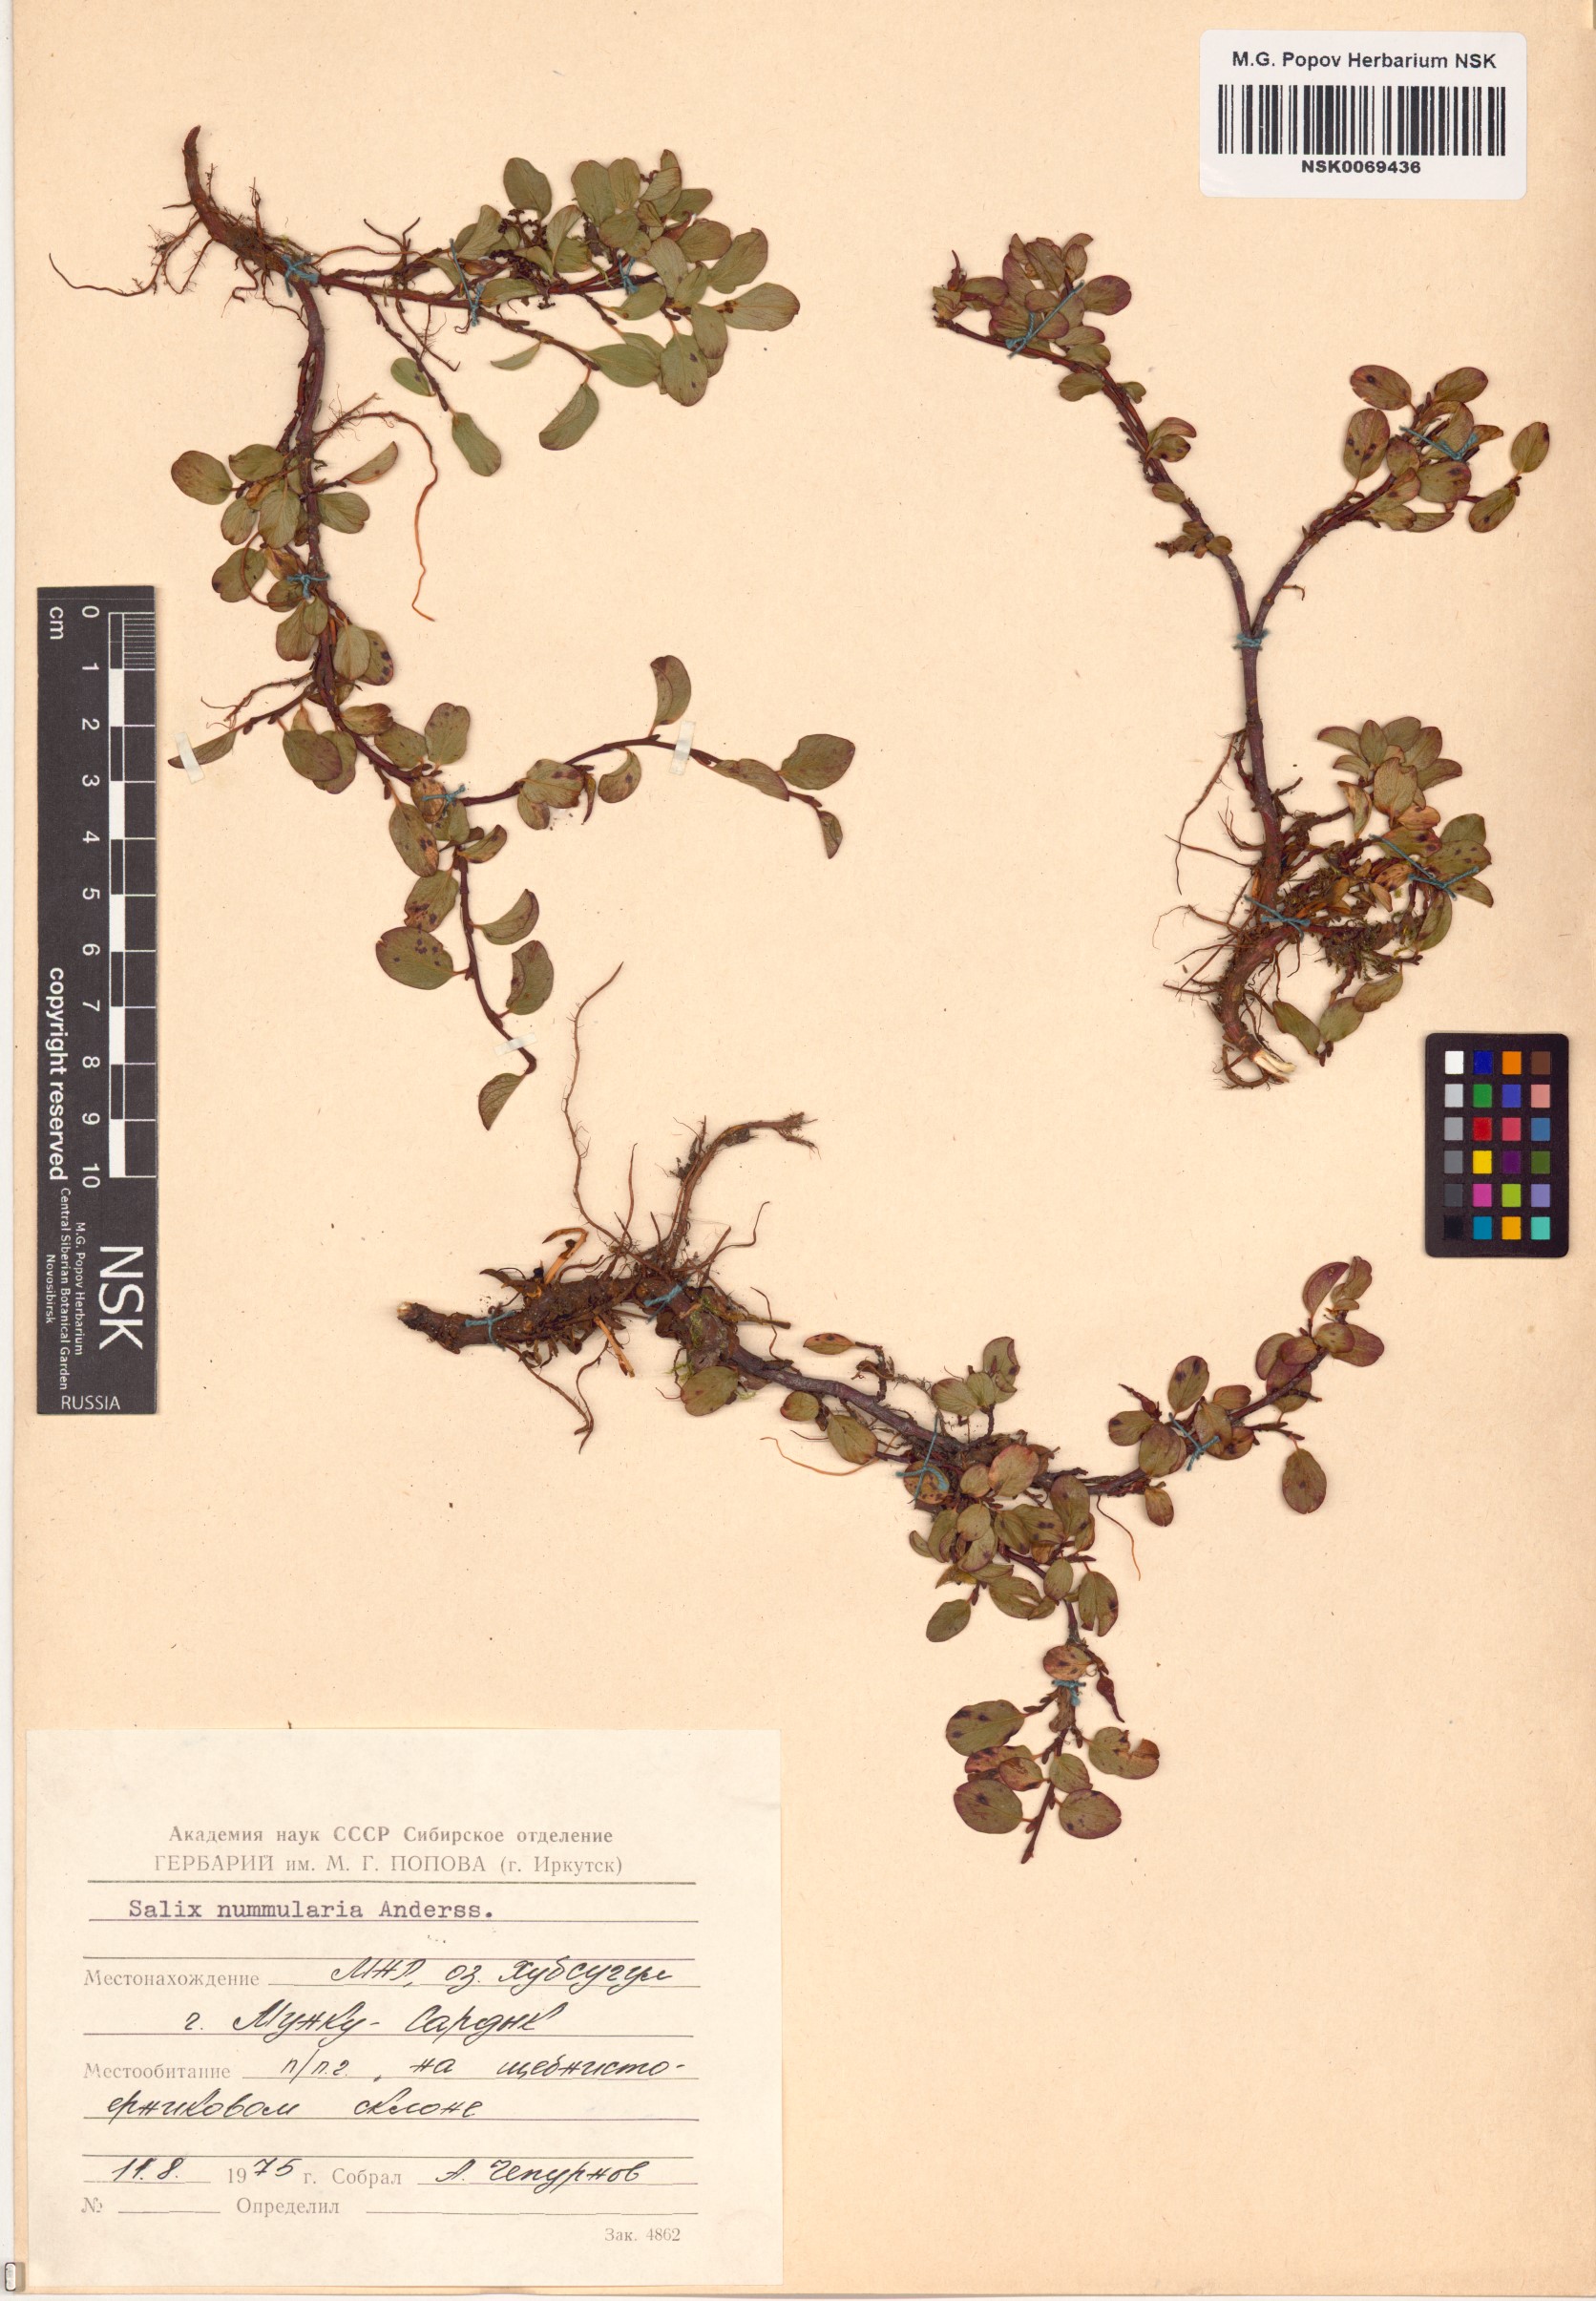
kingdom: Plantae
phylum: Tracheophyta
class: Magnoliopsida
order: Malpighiales
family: Salicaceae
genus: Salix
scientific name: Salix nummularia
